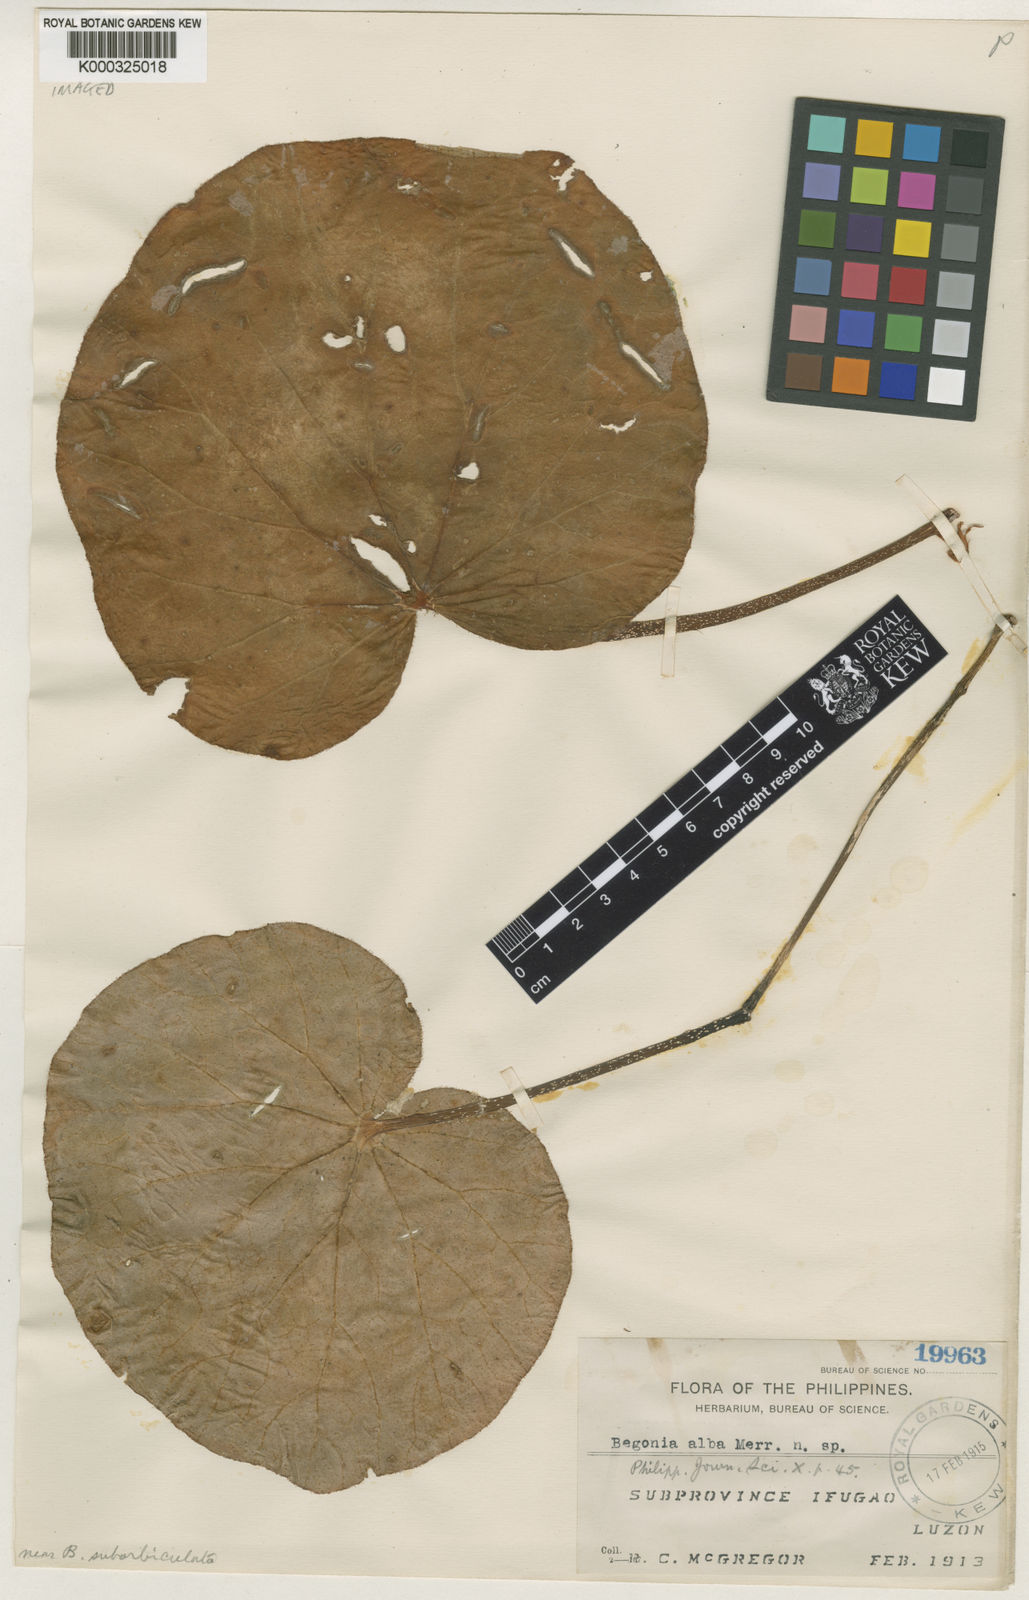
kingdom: Plantae
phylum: Tracheophyta
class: Magnoliopsida
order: Cucurbitales
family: Begoniaceae
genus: Begonia
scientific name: Begonia alba
